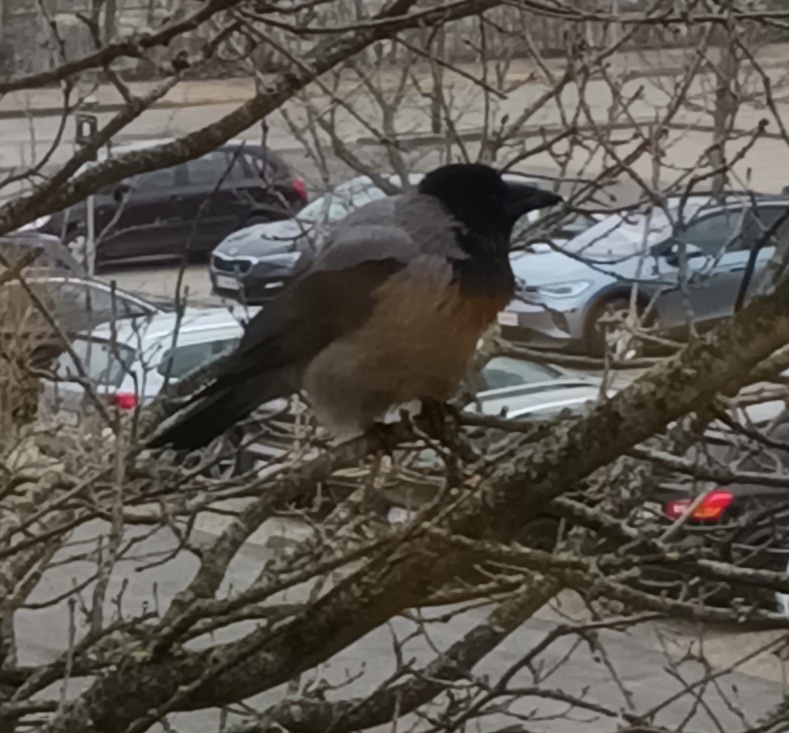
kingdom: Animalia
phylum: Chordata
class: Aves
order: Passeriformes
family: Corvidae
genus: Corvus
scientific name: Corvus cornix
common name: Gråkrage
